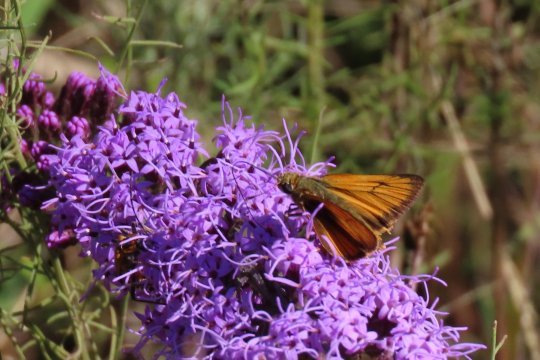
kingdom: Animalia
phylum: Arthropoda
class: Insecta
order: Lepidoptera
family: Hesperiidae
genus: Atrytone
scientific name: Atrytone delaware
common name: Delaware Skipper
